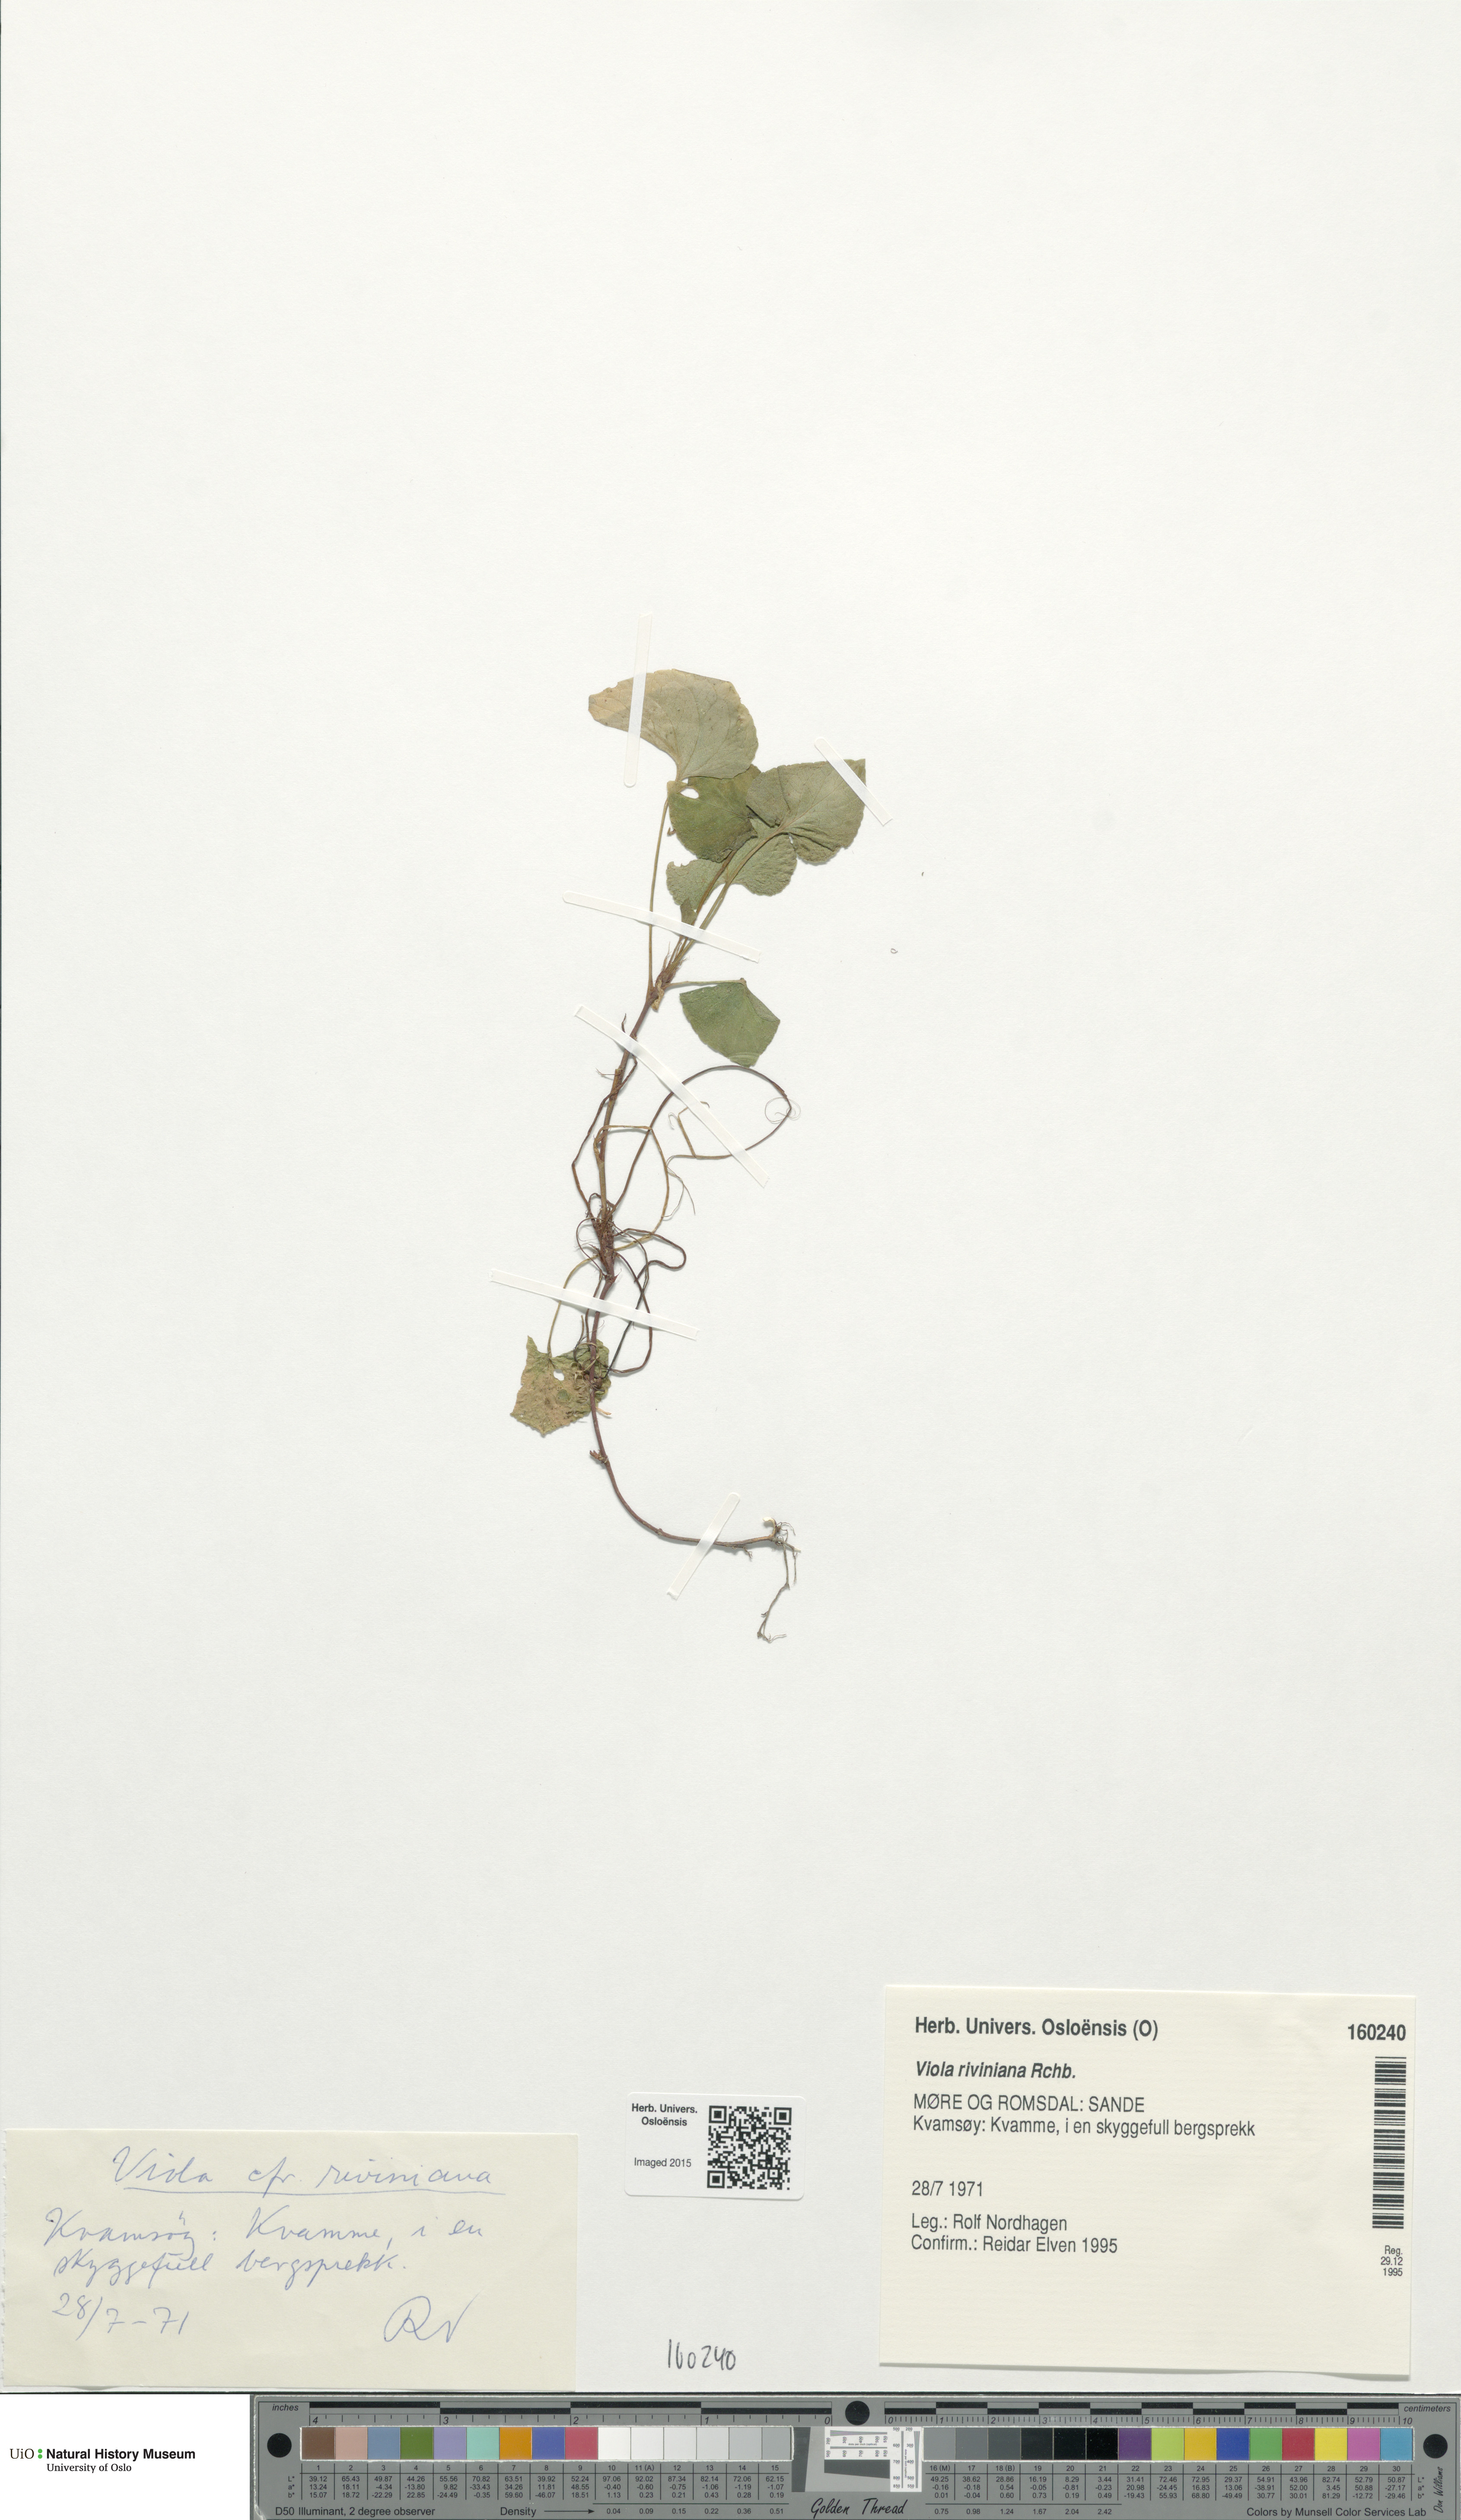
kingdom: Plantae
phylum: Tracheophyta
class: Magnoliopsida
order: Malpighiales
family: Violaceae
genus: Viola
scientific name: Viola riviniana
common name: Common dog-violet
